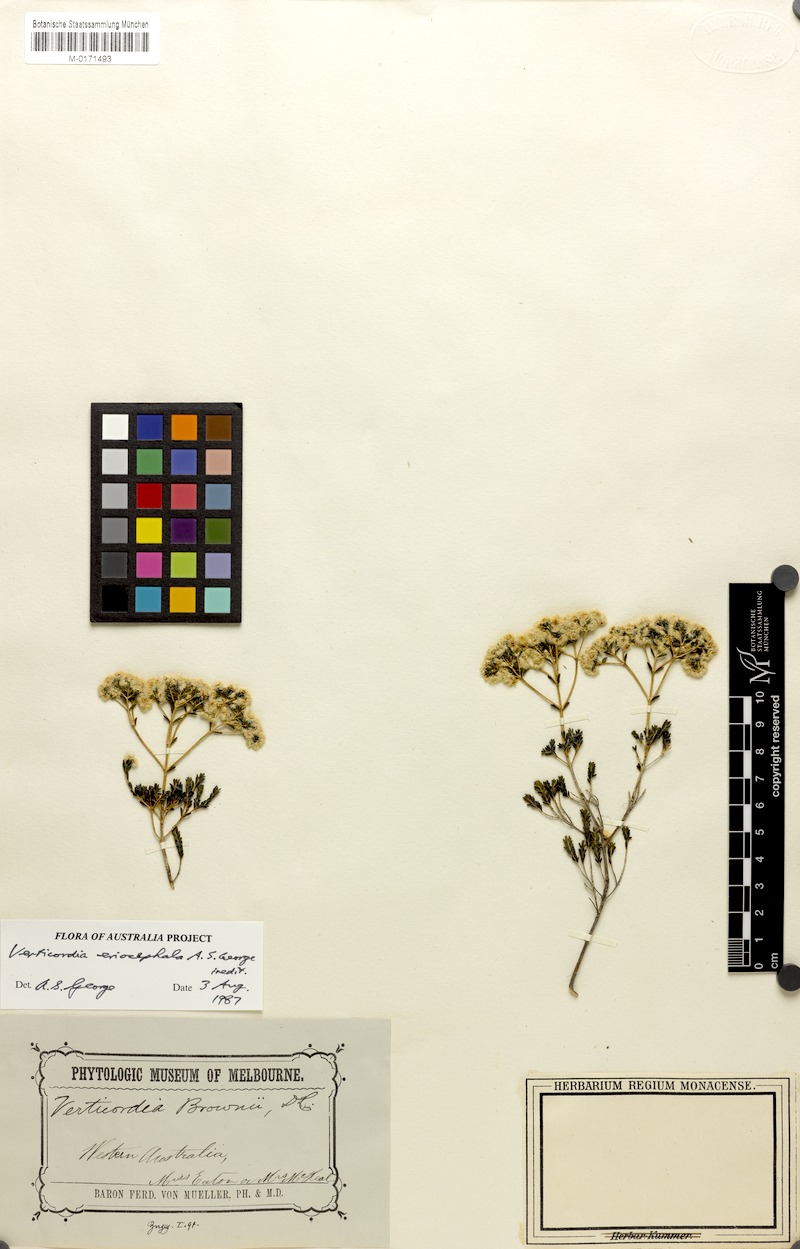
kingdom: Plantae
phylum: Tracheophyta
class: Magnoliopsida
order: Myrtales
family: Myrtaceae
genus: Verticordia
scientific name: Verticordia eriocephala
